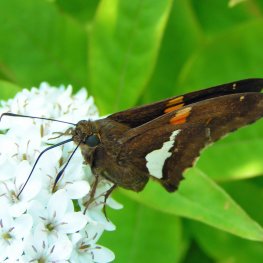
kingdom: Animalia
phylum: Arthropoda
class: Insecta
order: Lepidoptera
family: Hesperiidae
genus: Epargyreus
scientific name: Epargyreus clarus
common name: Silver-spotted Skipper
